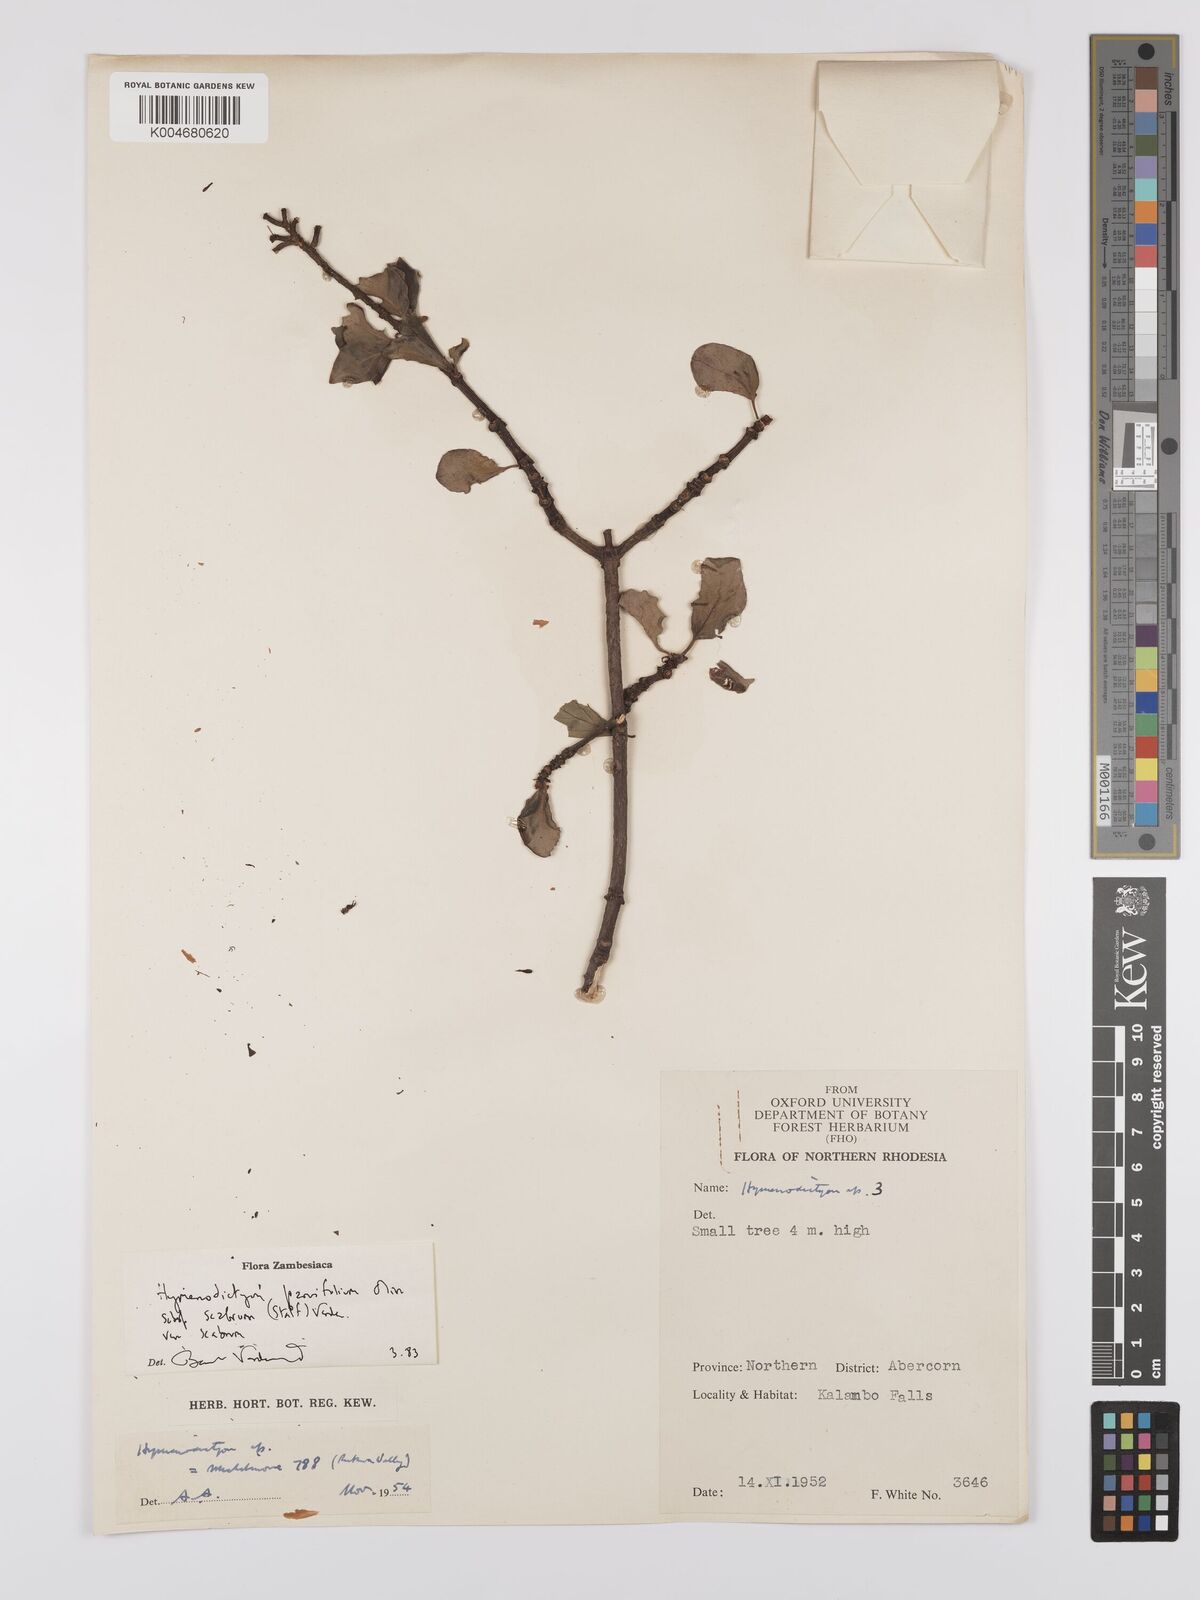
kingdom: Plantae
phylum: Tracheophyta
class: Magnoliopsida
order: Gentianales
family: Rubiaceae
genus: Hymenodictyon
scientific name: Hymenodictyon scabrum
